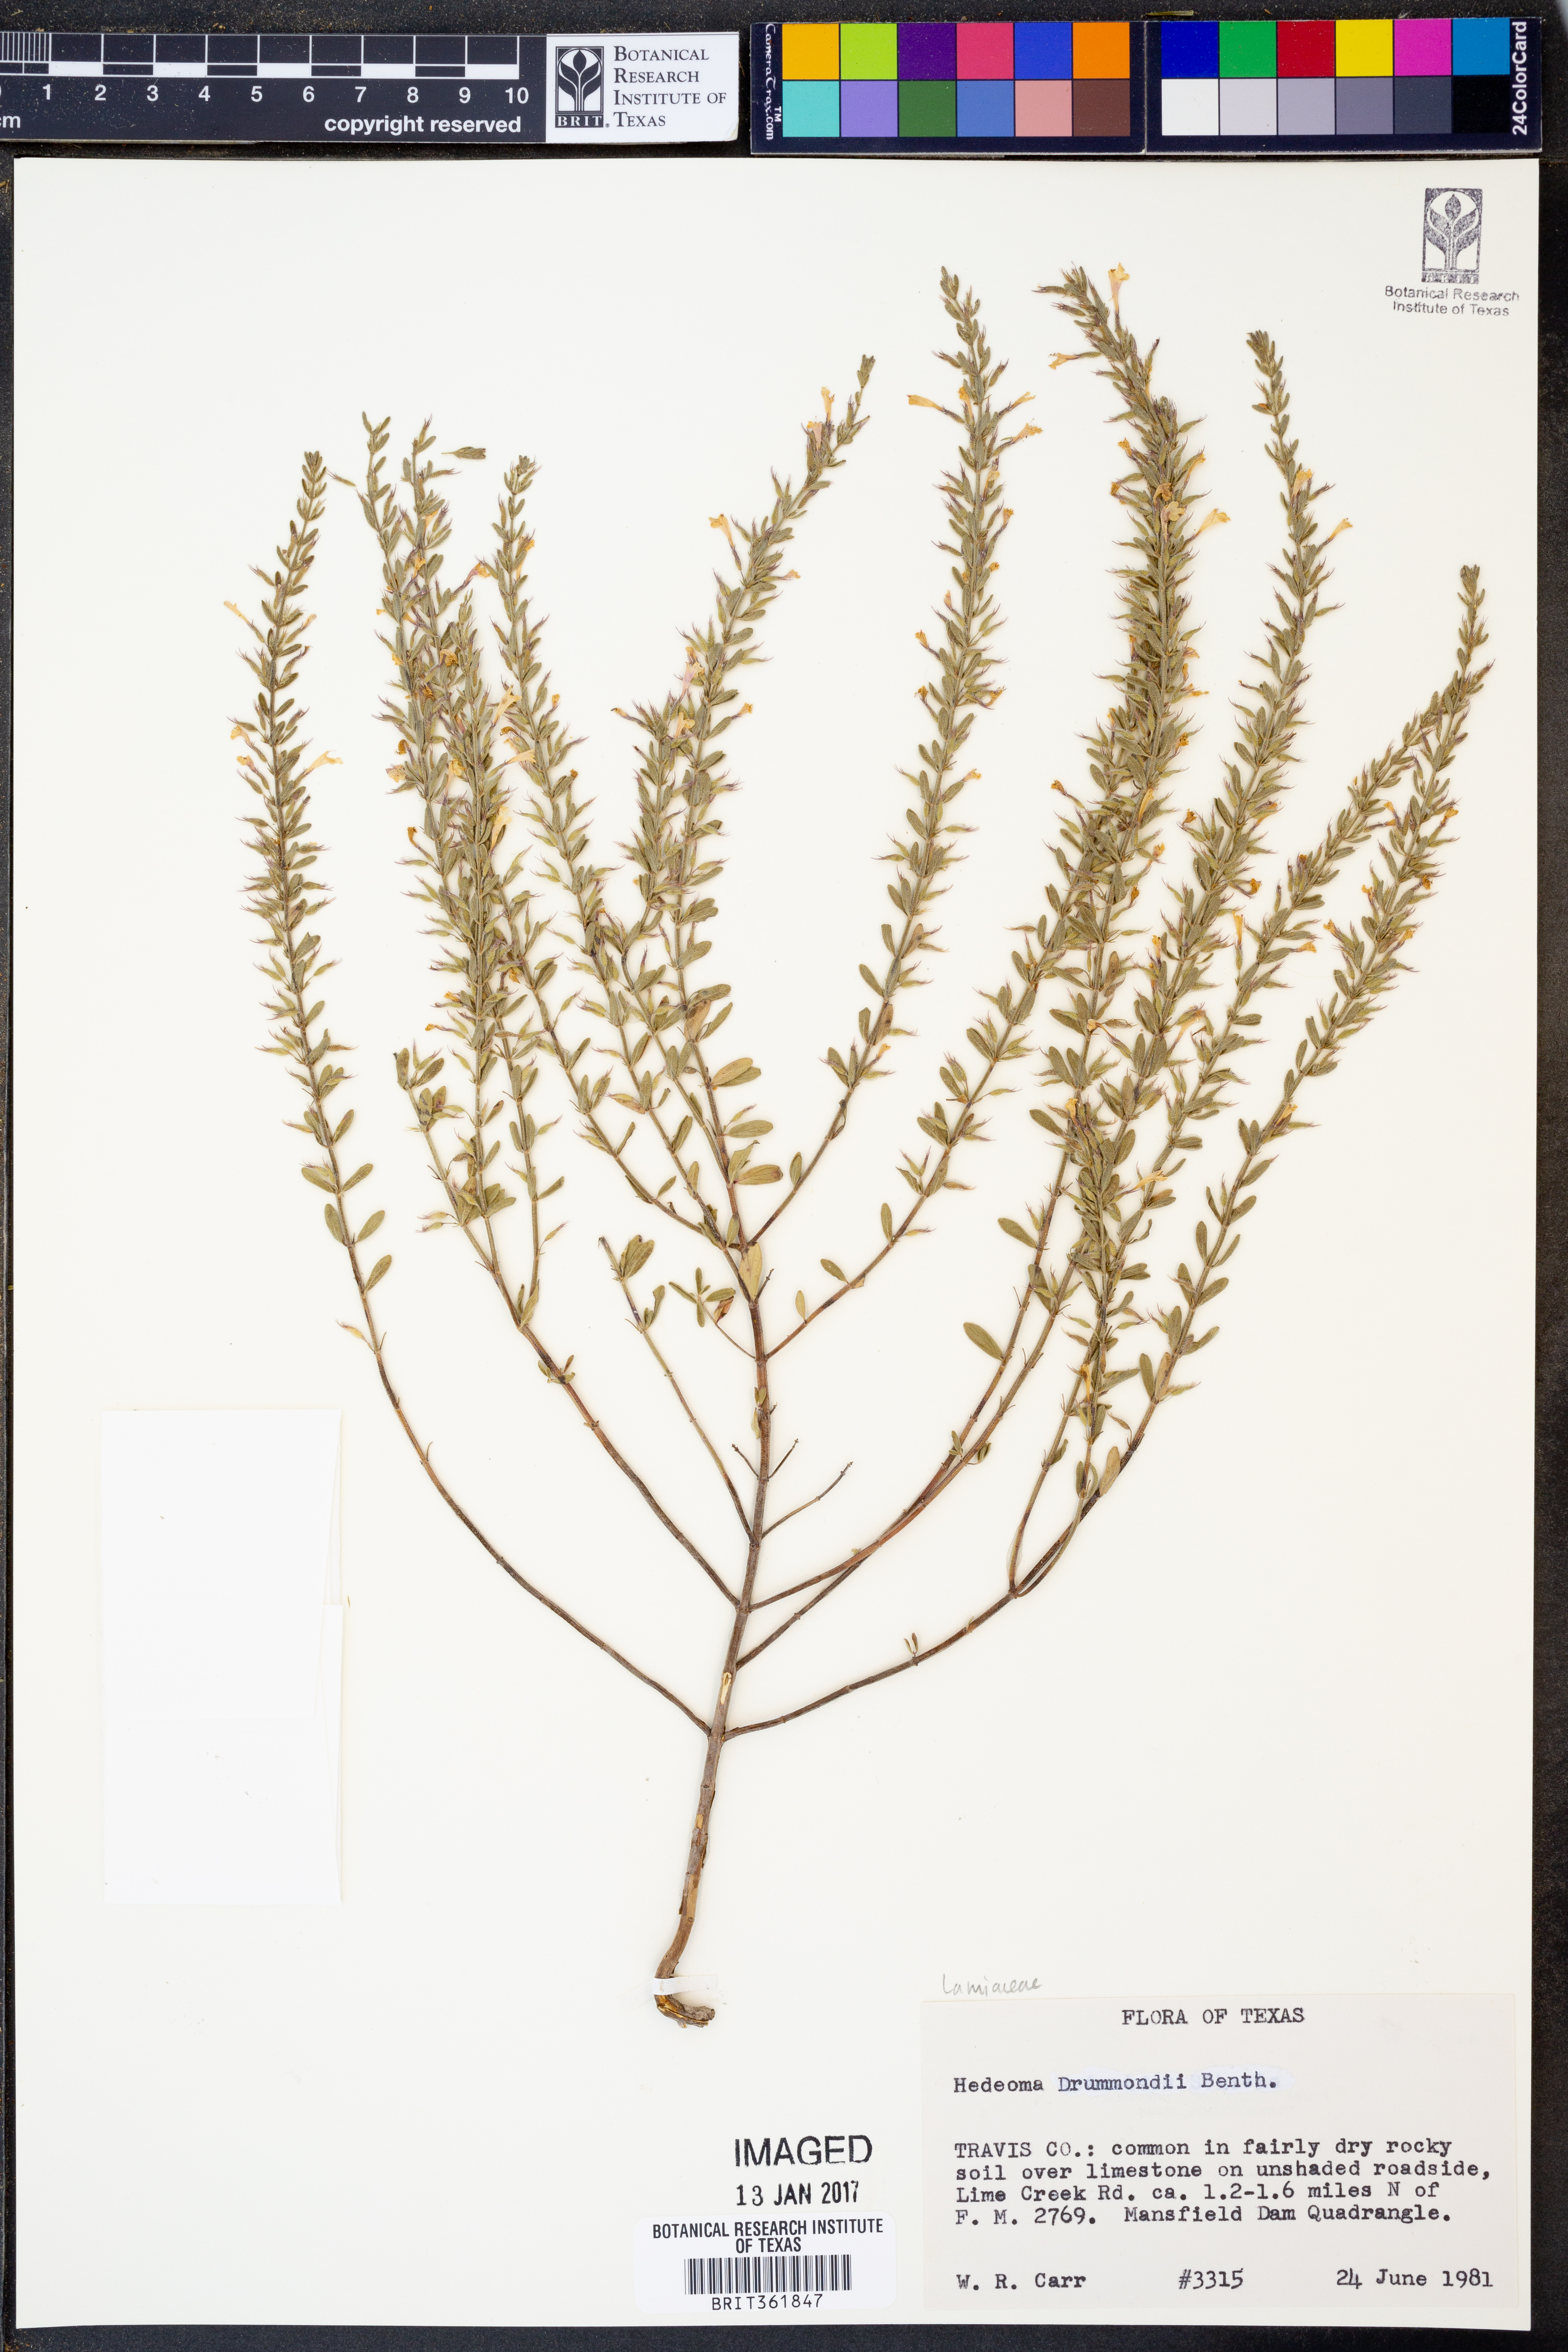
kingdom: Plantae
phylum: Tracheophyta
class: Magnoliopsida
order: Lamiales
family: Lamiaceae
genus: Hedeoma
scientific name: Hedeoma drummondii
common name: New mexico pennyroyal
